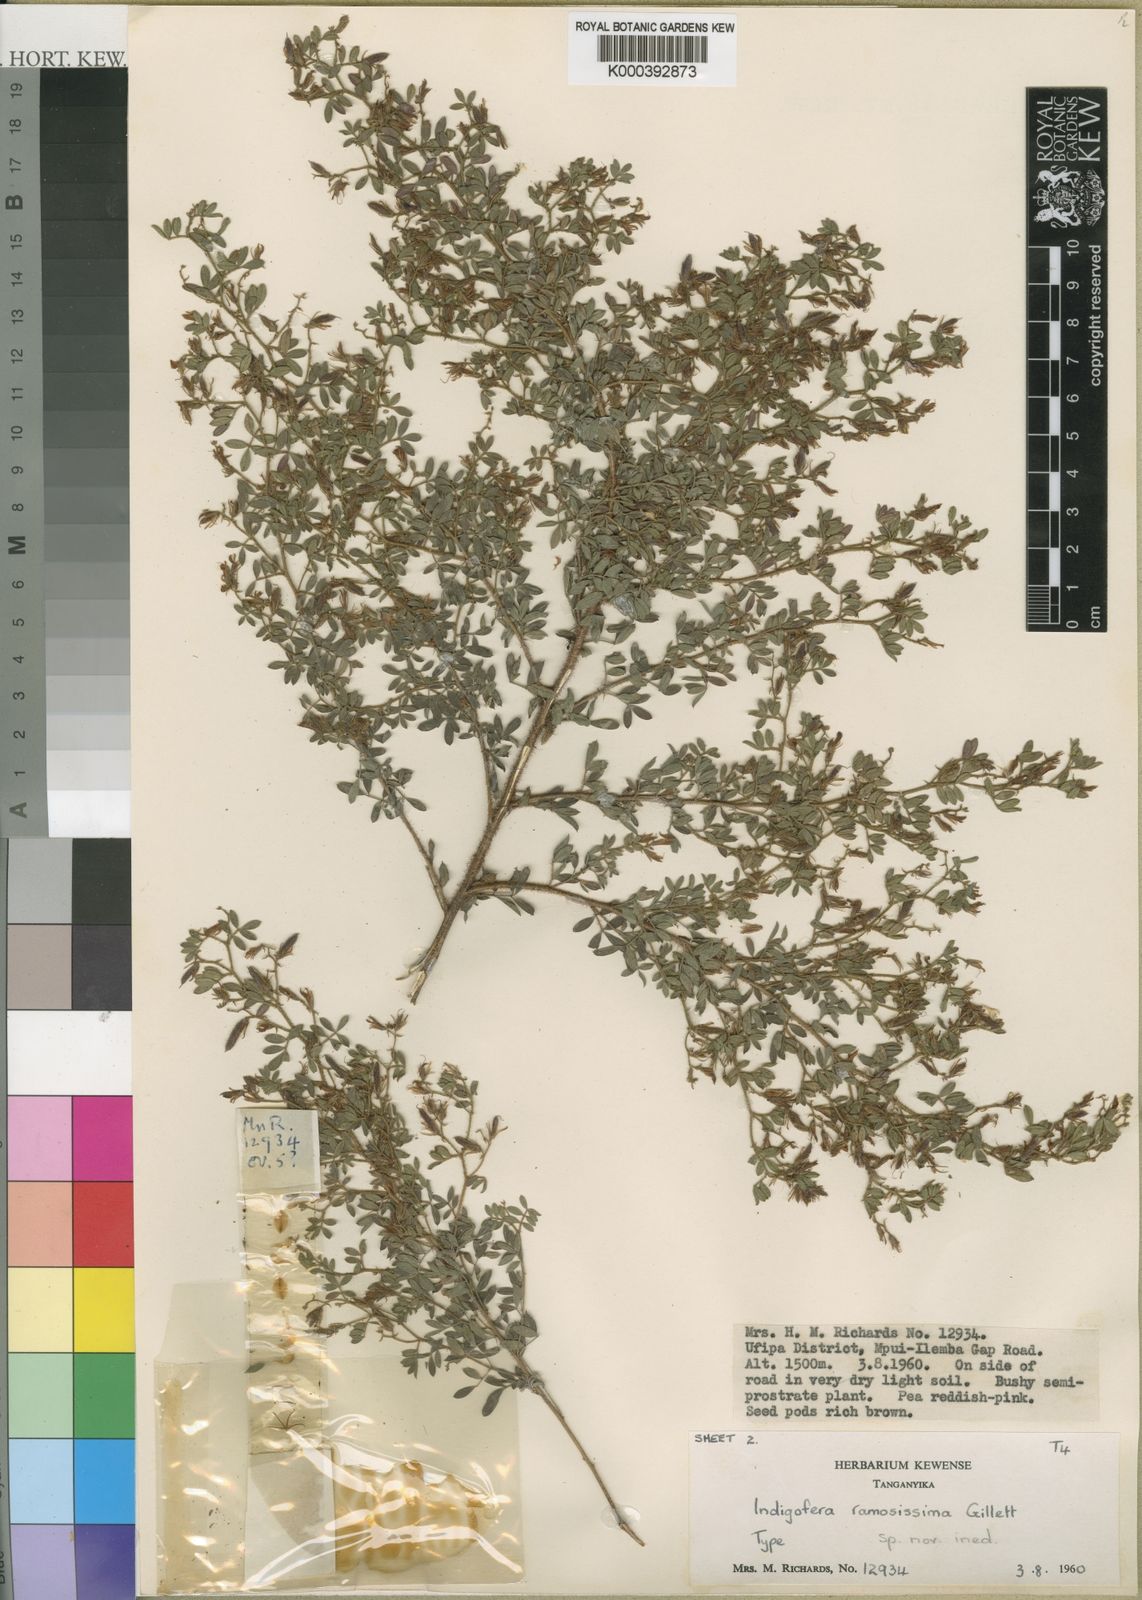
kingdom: Plantae
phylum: Tracheophyta
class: Magnoliopsida
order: Fabales
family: Fabaceae
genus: Indigofera
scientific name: Indigofera microscypha
